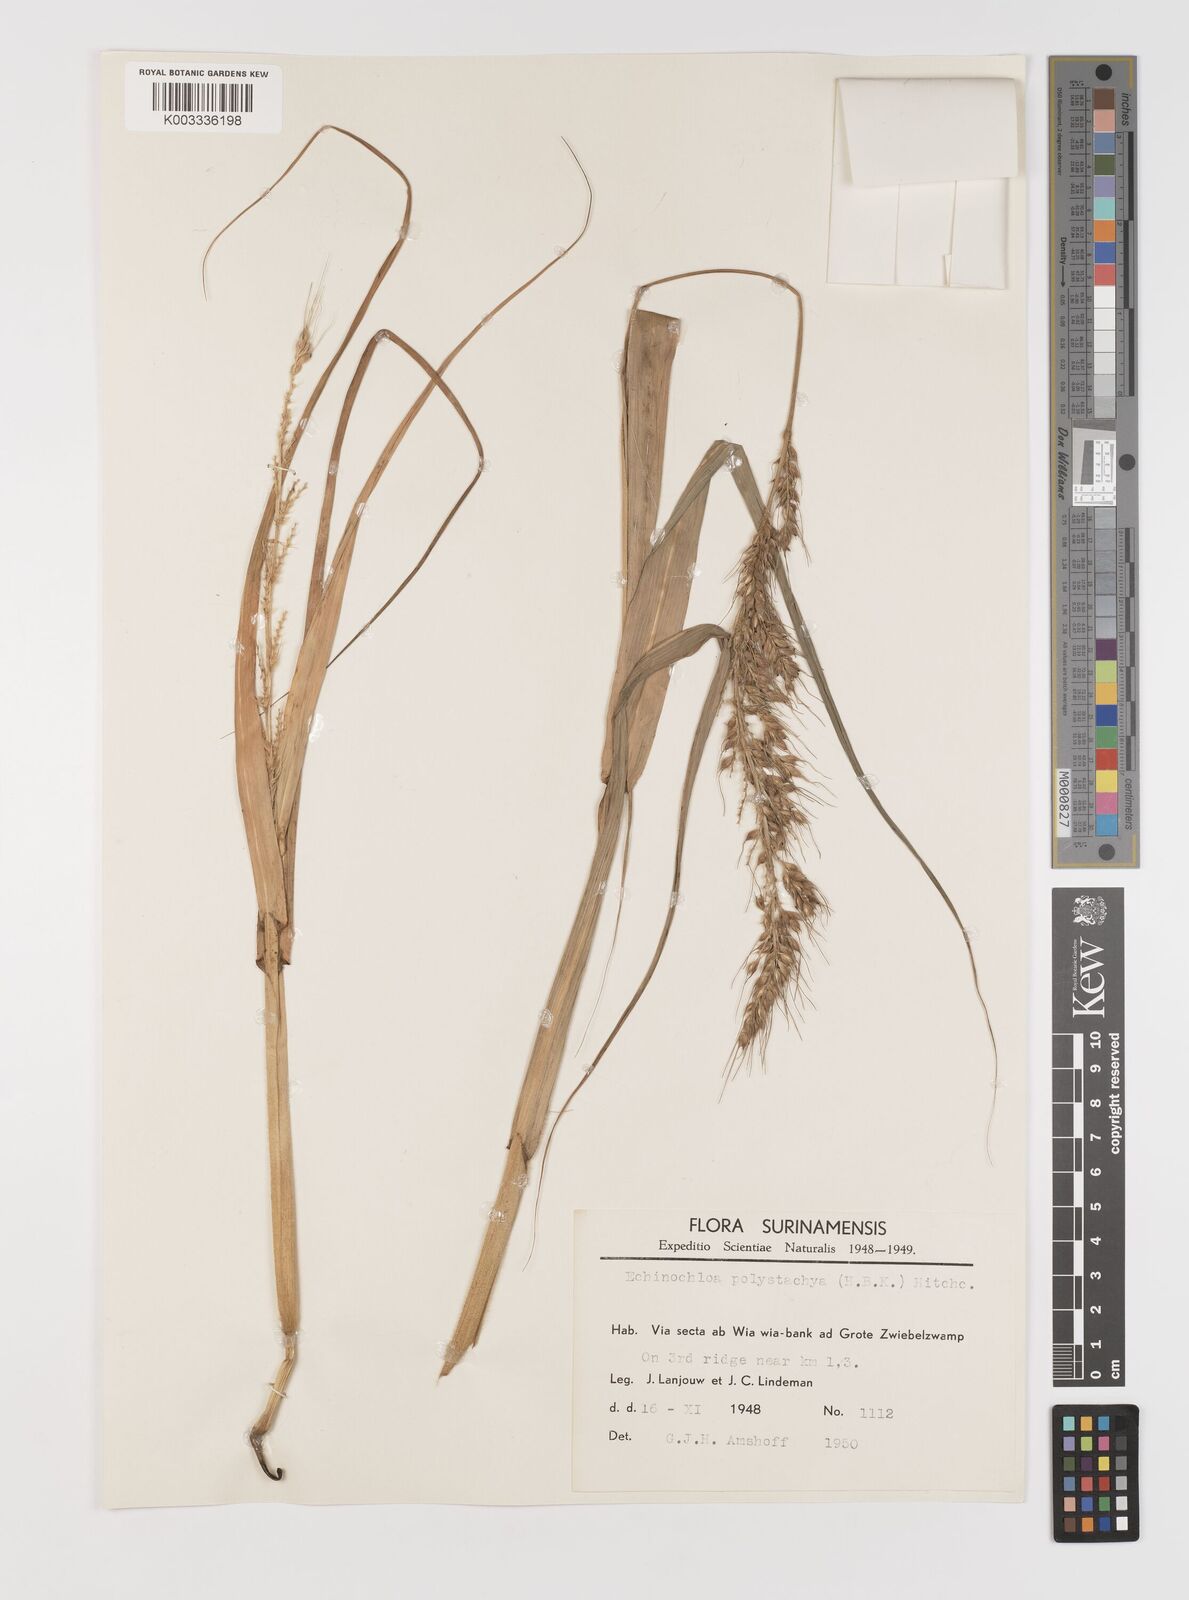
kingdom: Plantae
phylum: Tracheophyta
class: Liliopsida
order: Poales
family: Poaceae
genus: Echinochloa
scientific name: Echinochloa polystachya
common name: Creeping river grass
